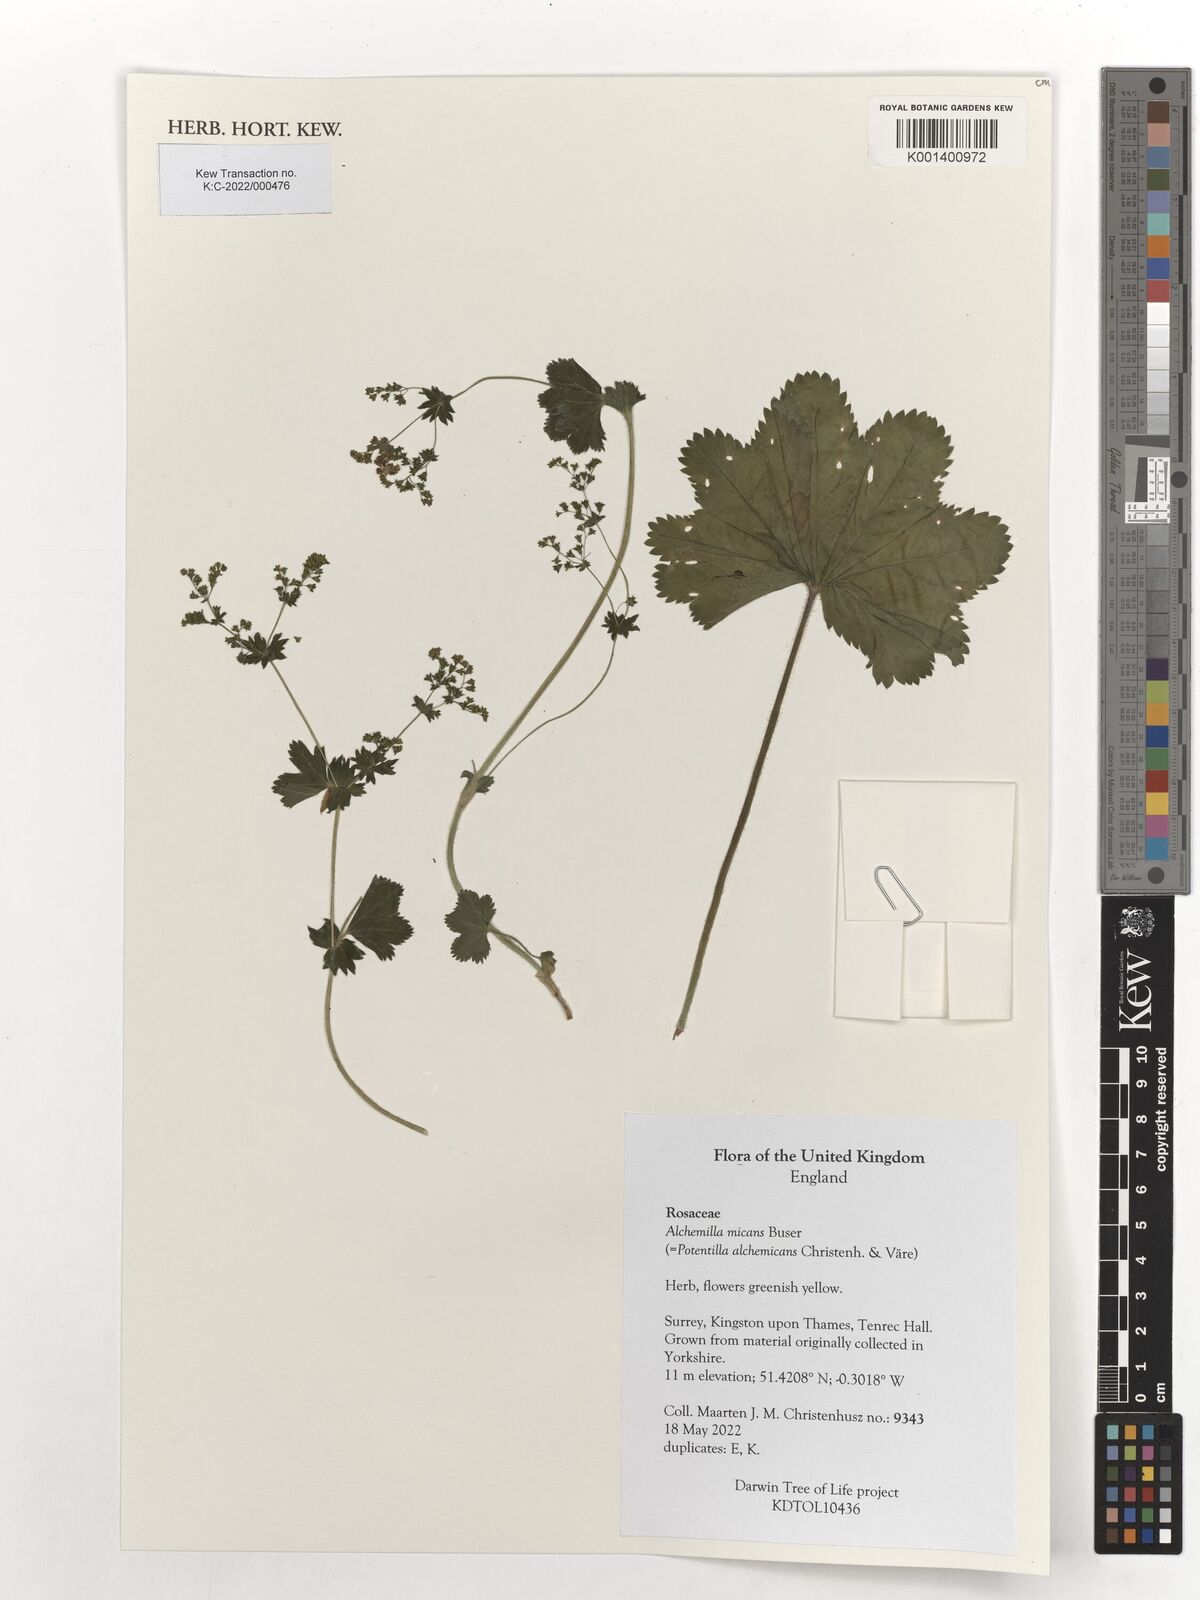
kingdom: Plantae
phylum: Tracheophyta
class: Magnoliopsida
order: Rosales
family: Rosaceae
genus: Alchemilla
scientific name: Alchemilla micans
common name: Gleaming lady's mantle
